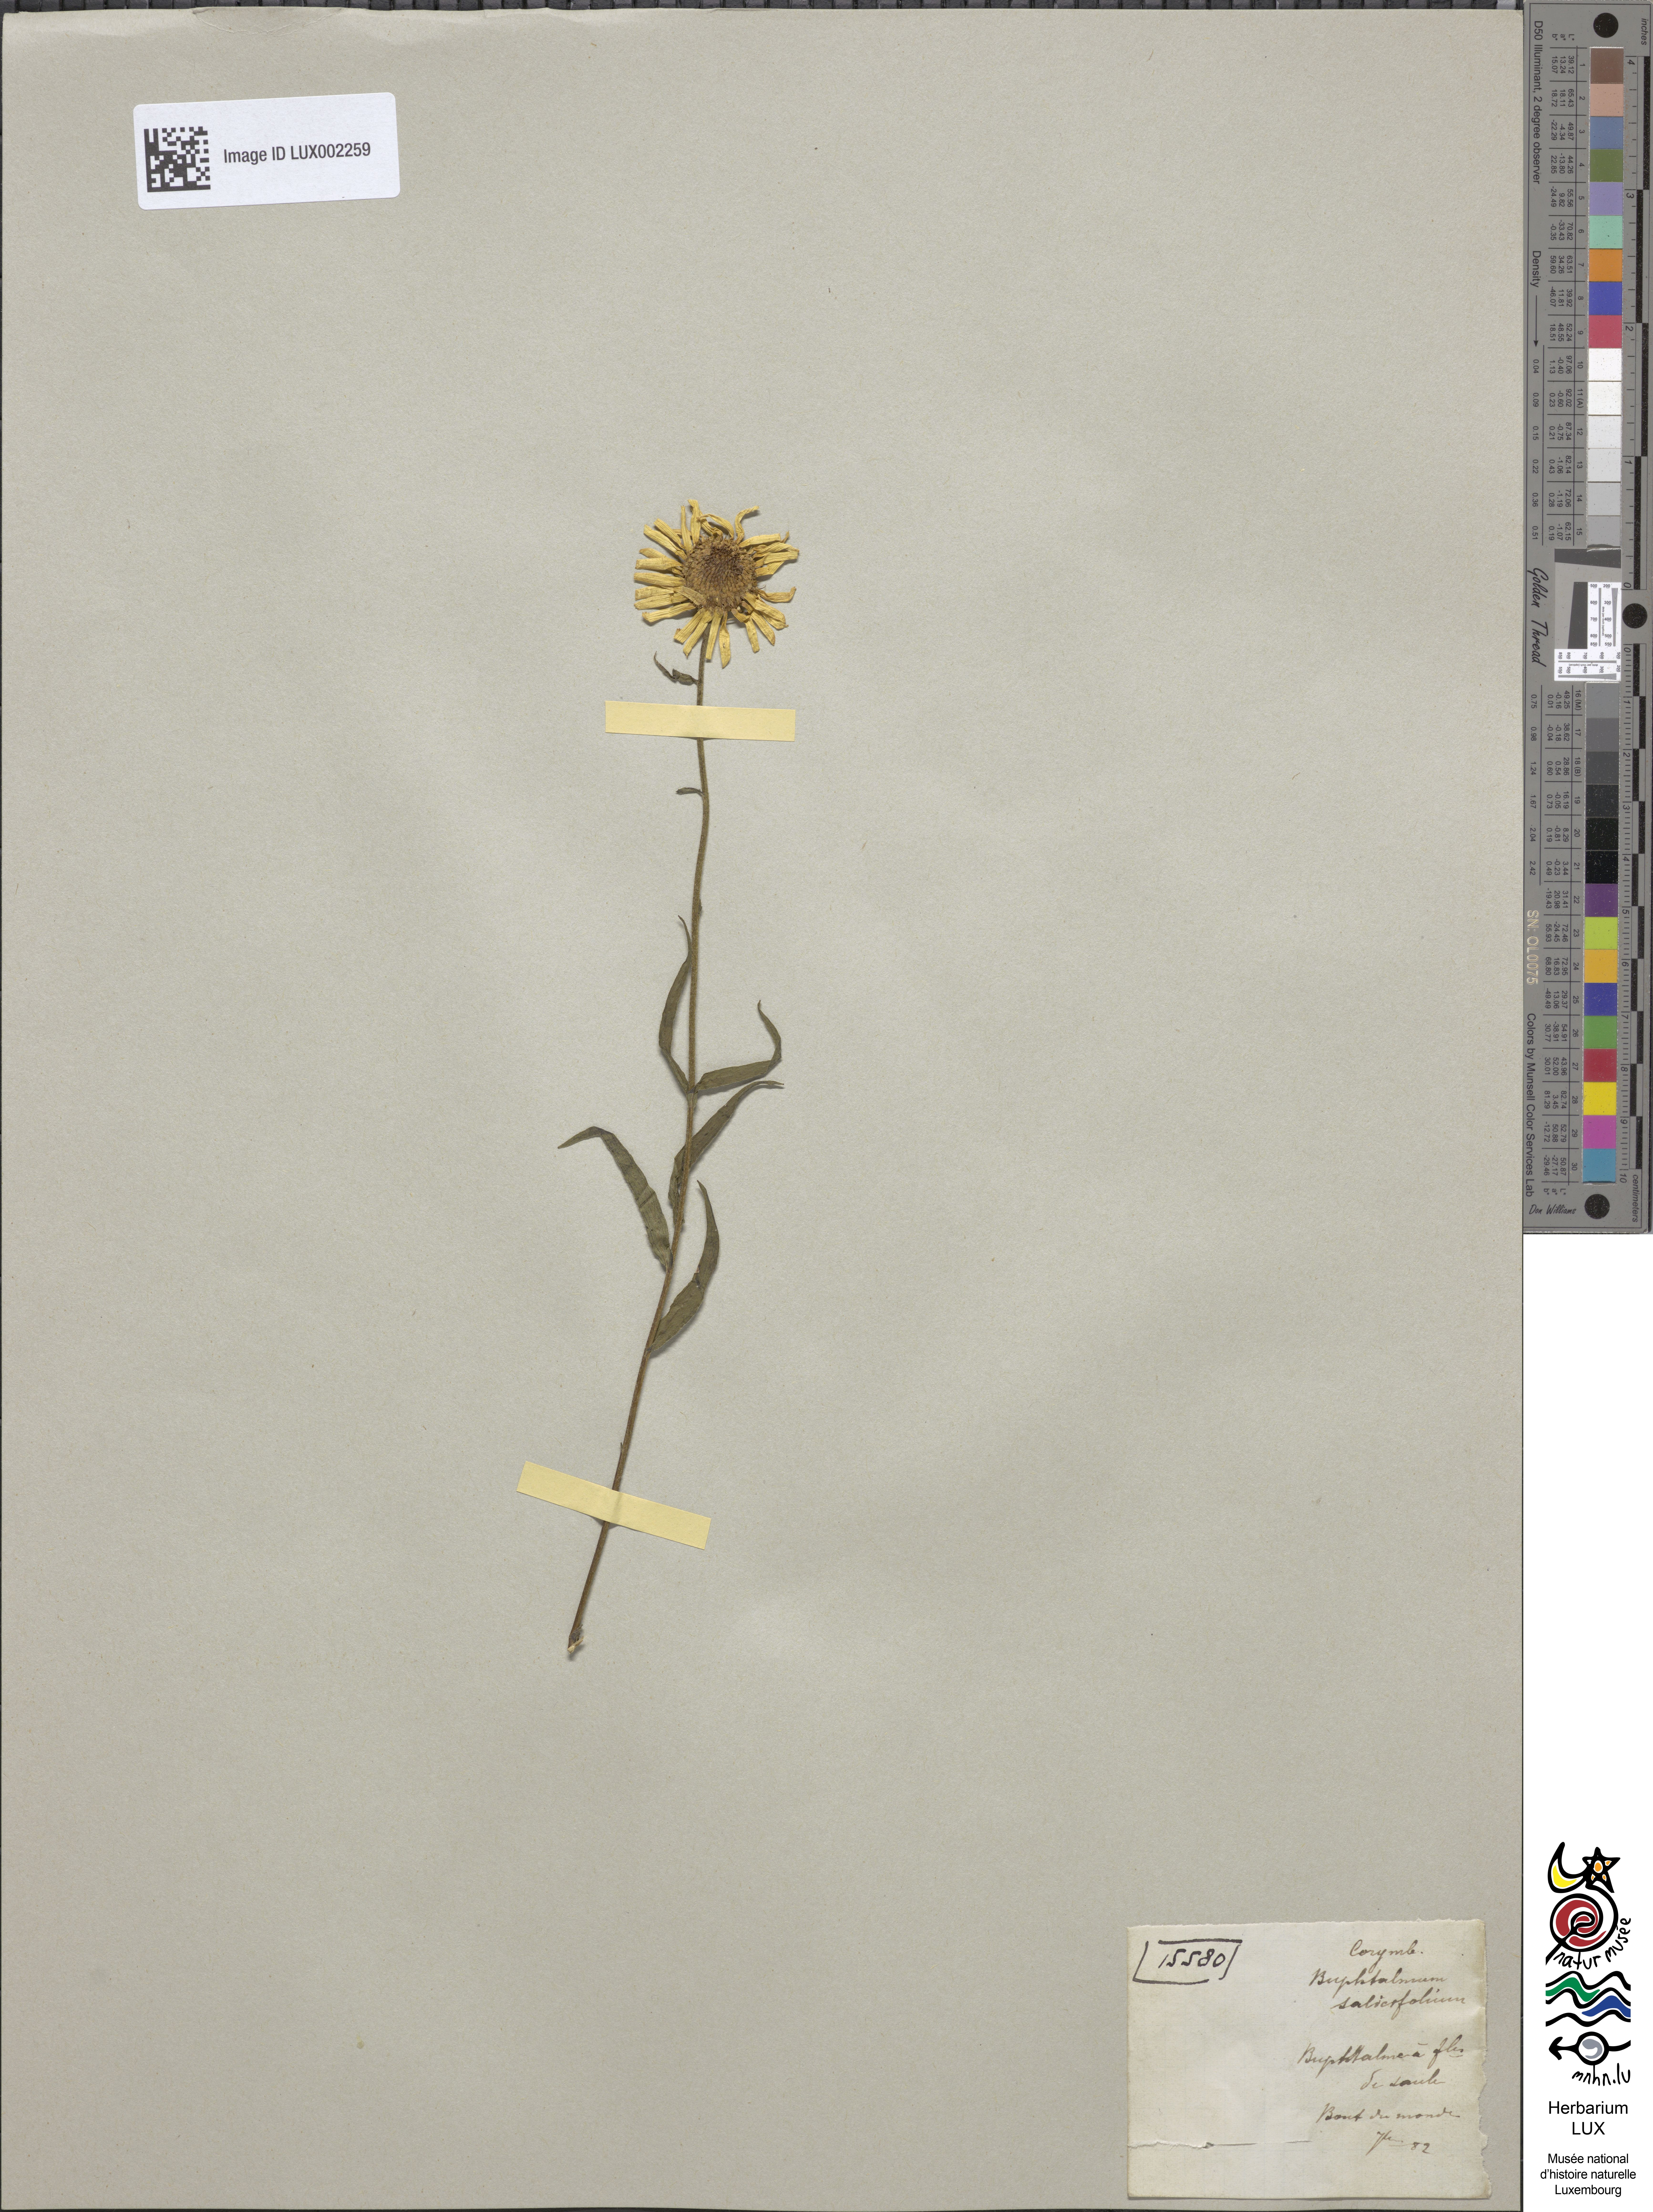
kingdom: Plantae
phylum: Tracheophyta
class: Magnoliopsida
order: Asterales
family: Asteraceae
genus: Buphthalmum
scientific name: Buphthalmum salicifolium
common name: Willow-leaved yellow-oxeye
